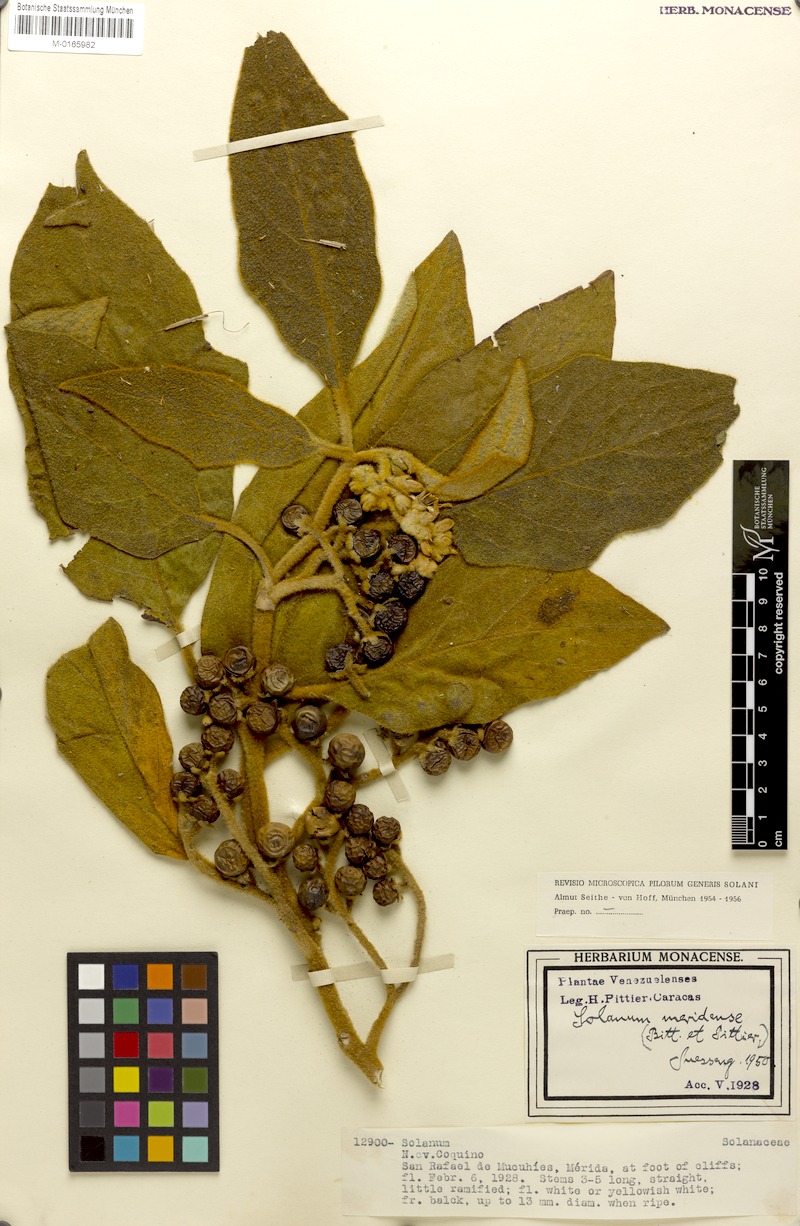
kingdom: Plantae
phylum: Tracheophyta
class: Magnoliopsida
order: Solanales
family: Solanaceae
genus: Solanum
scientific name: Solanum hirtum
